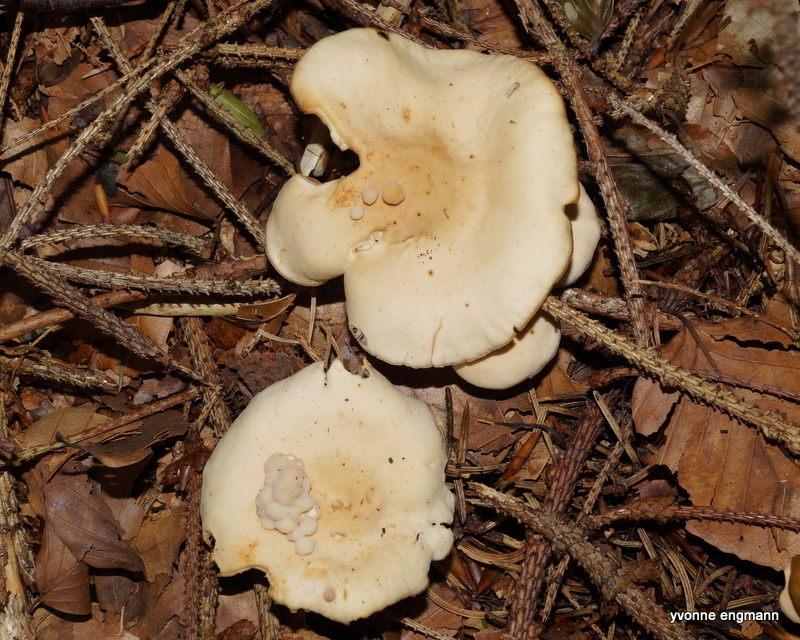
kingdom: Fungi
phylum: Basidiomycota
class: Agaricomycetes
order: Agaricales
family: Omphalotaceae
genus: Gymnopus
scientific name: Gymnopus dryophilus
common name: løv-fladhat
